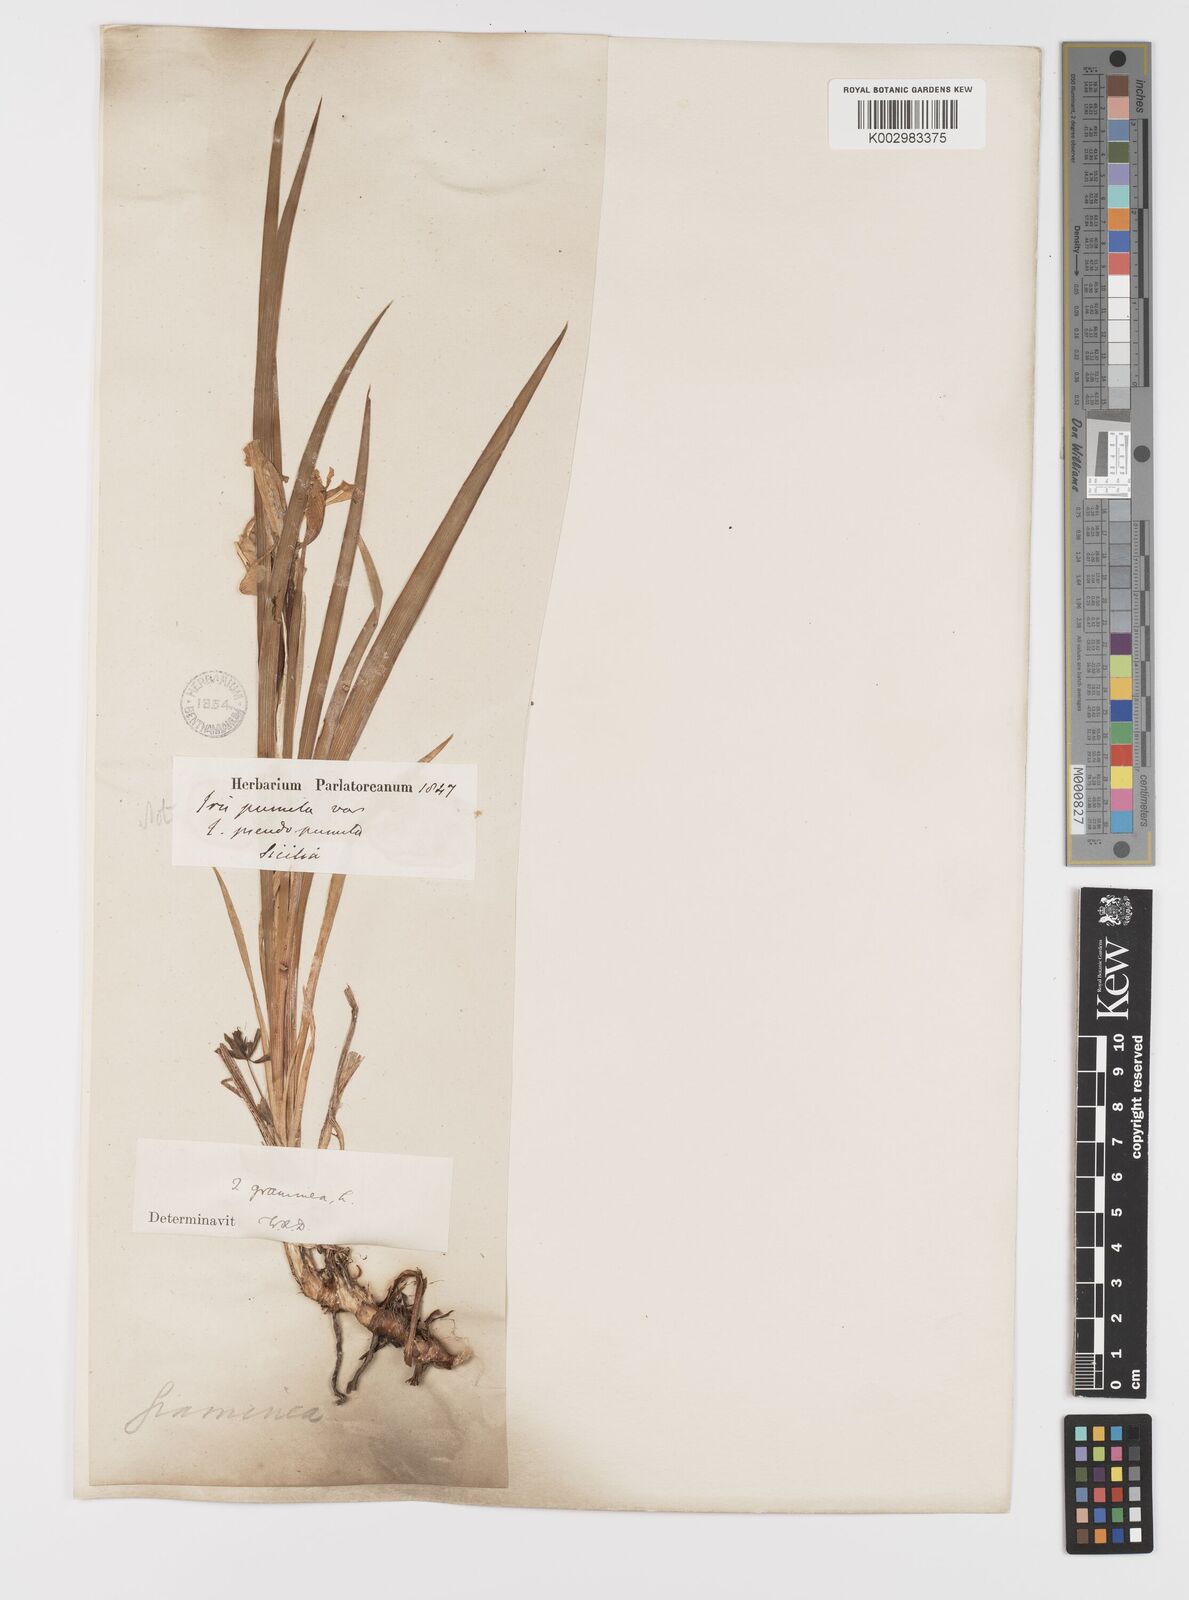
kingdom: Plantae
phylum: Tracheophyta
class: Liliopsida
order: Asparagales
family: Iridaceae
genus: Iris
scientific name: Iris
